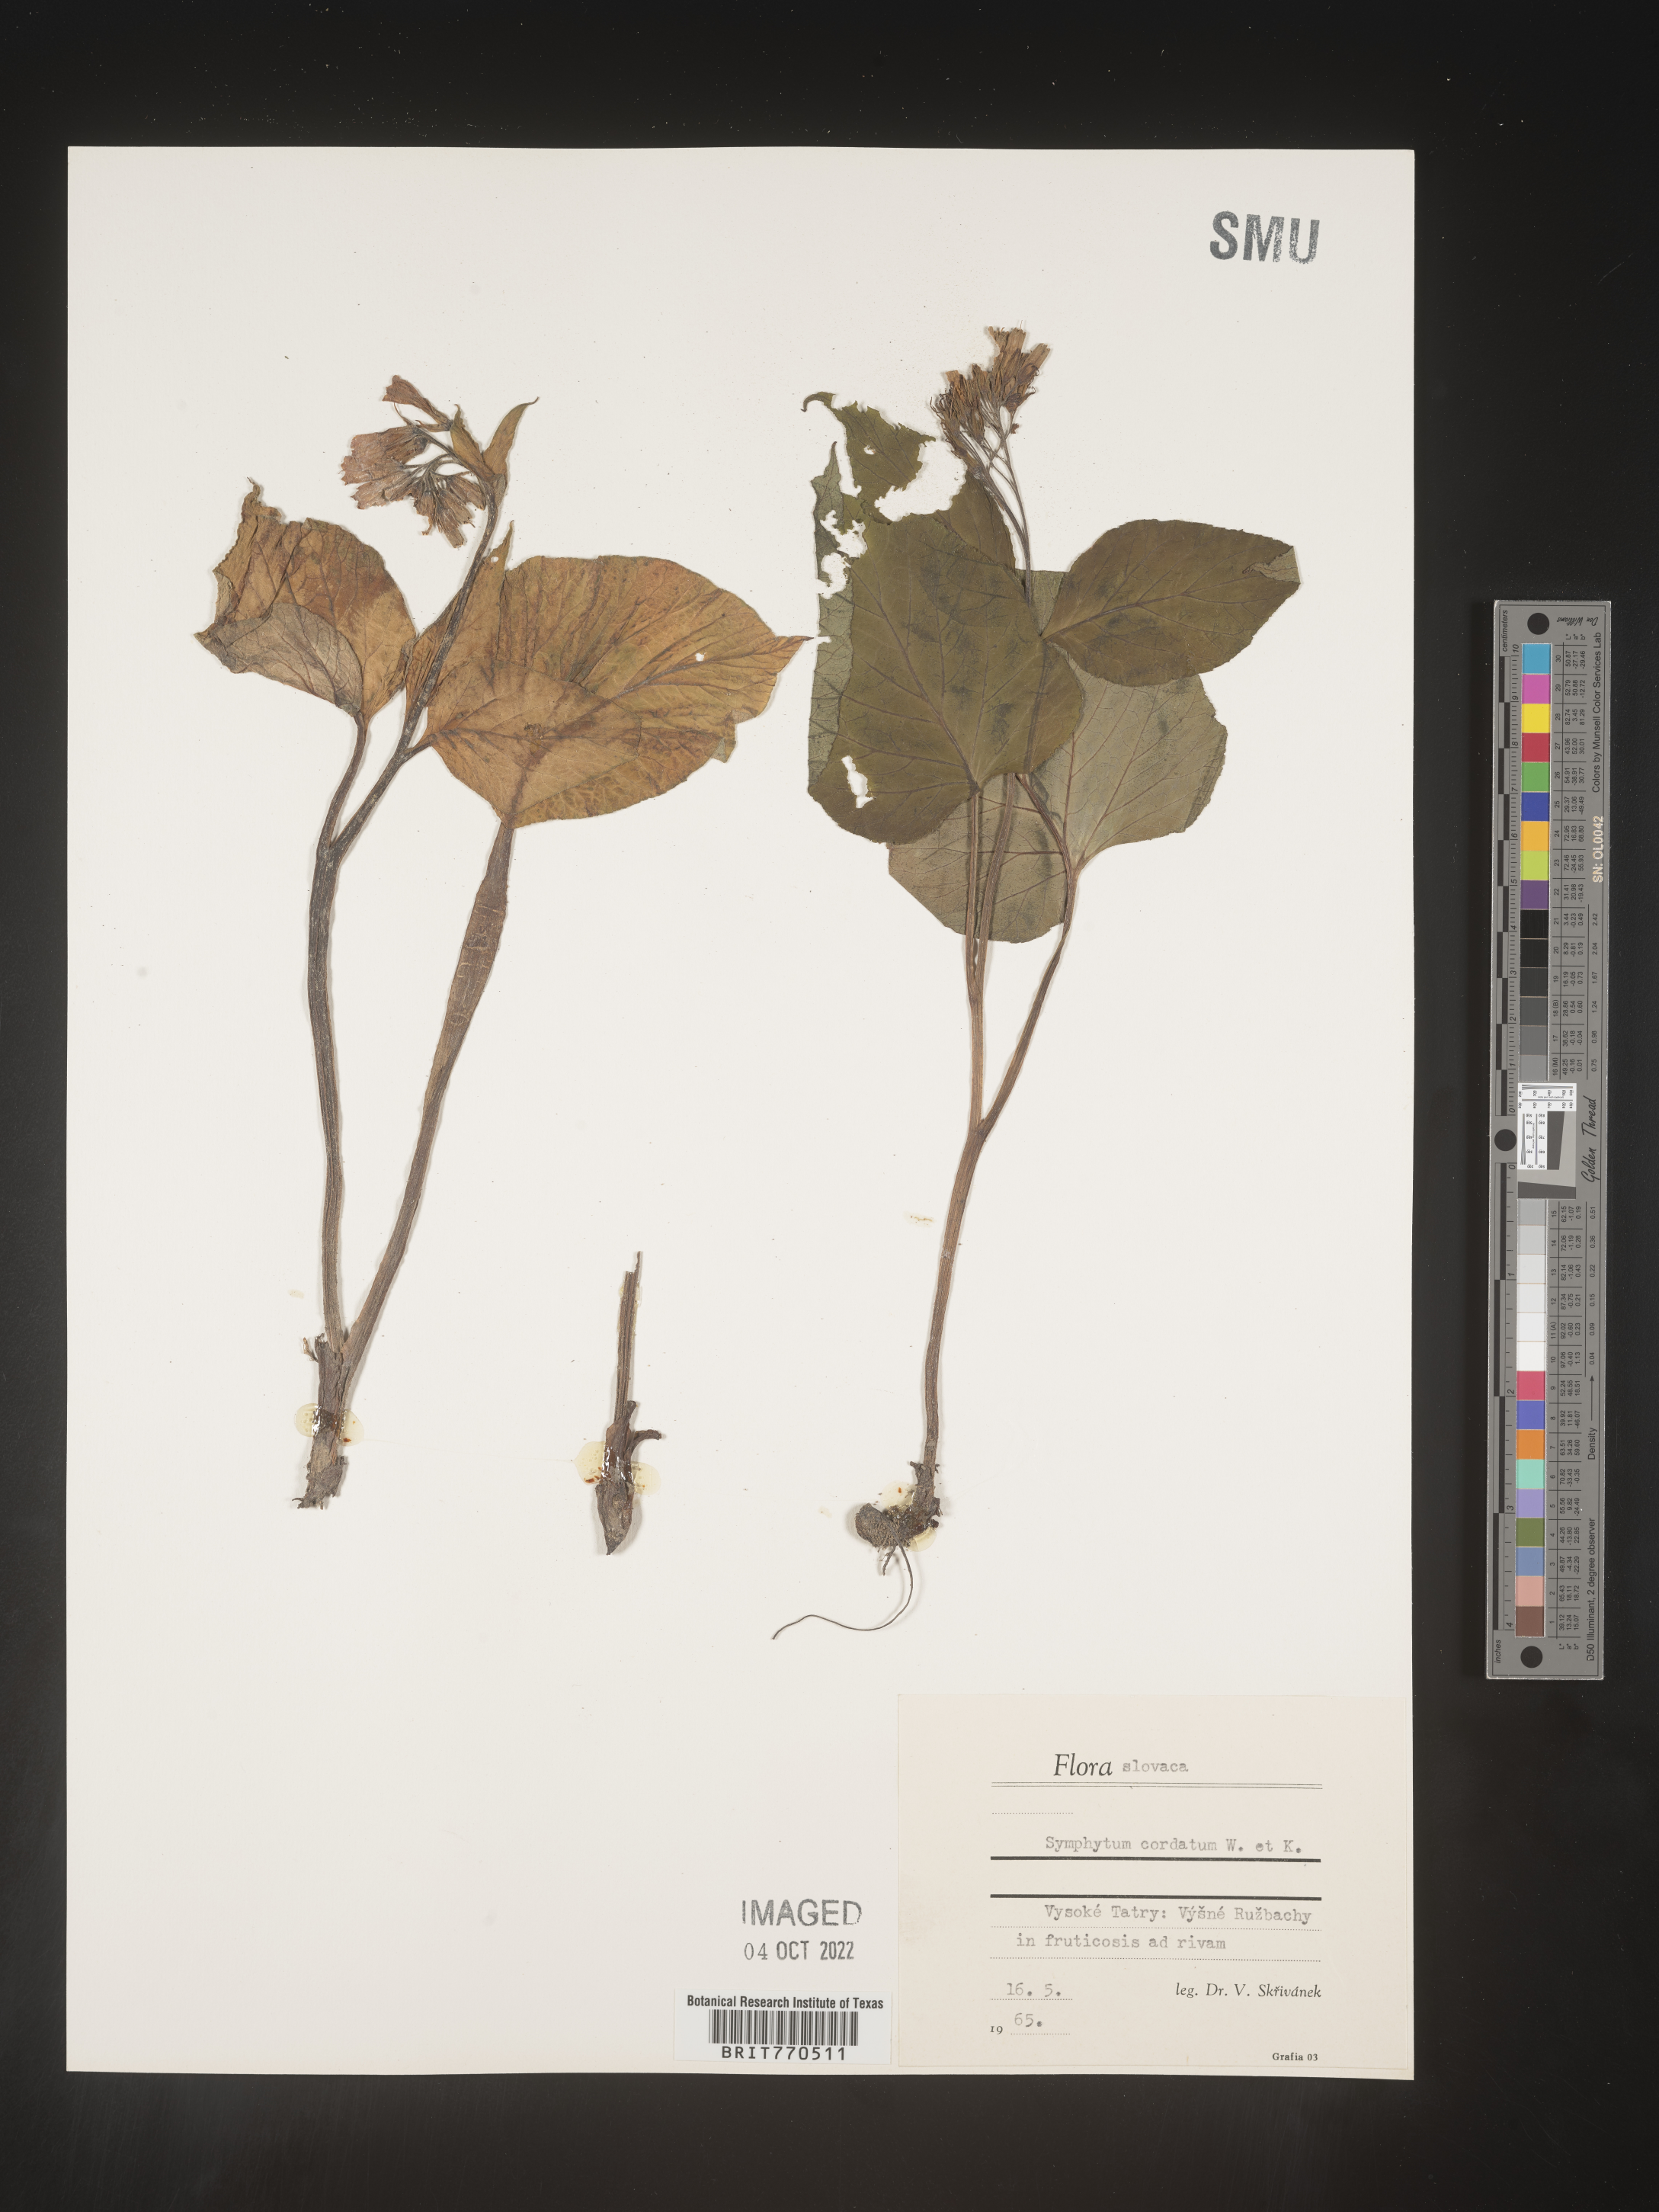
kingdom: Plantae
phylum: Tracheophyta
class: Magnoliopsida
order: Boraginales
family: Boraginaceae
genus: Symphytum
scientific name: Symphytum
